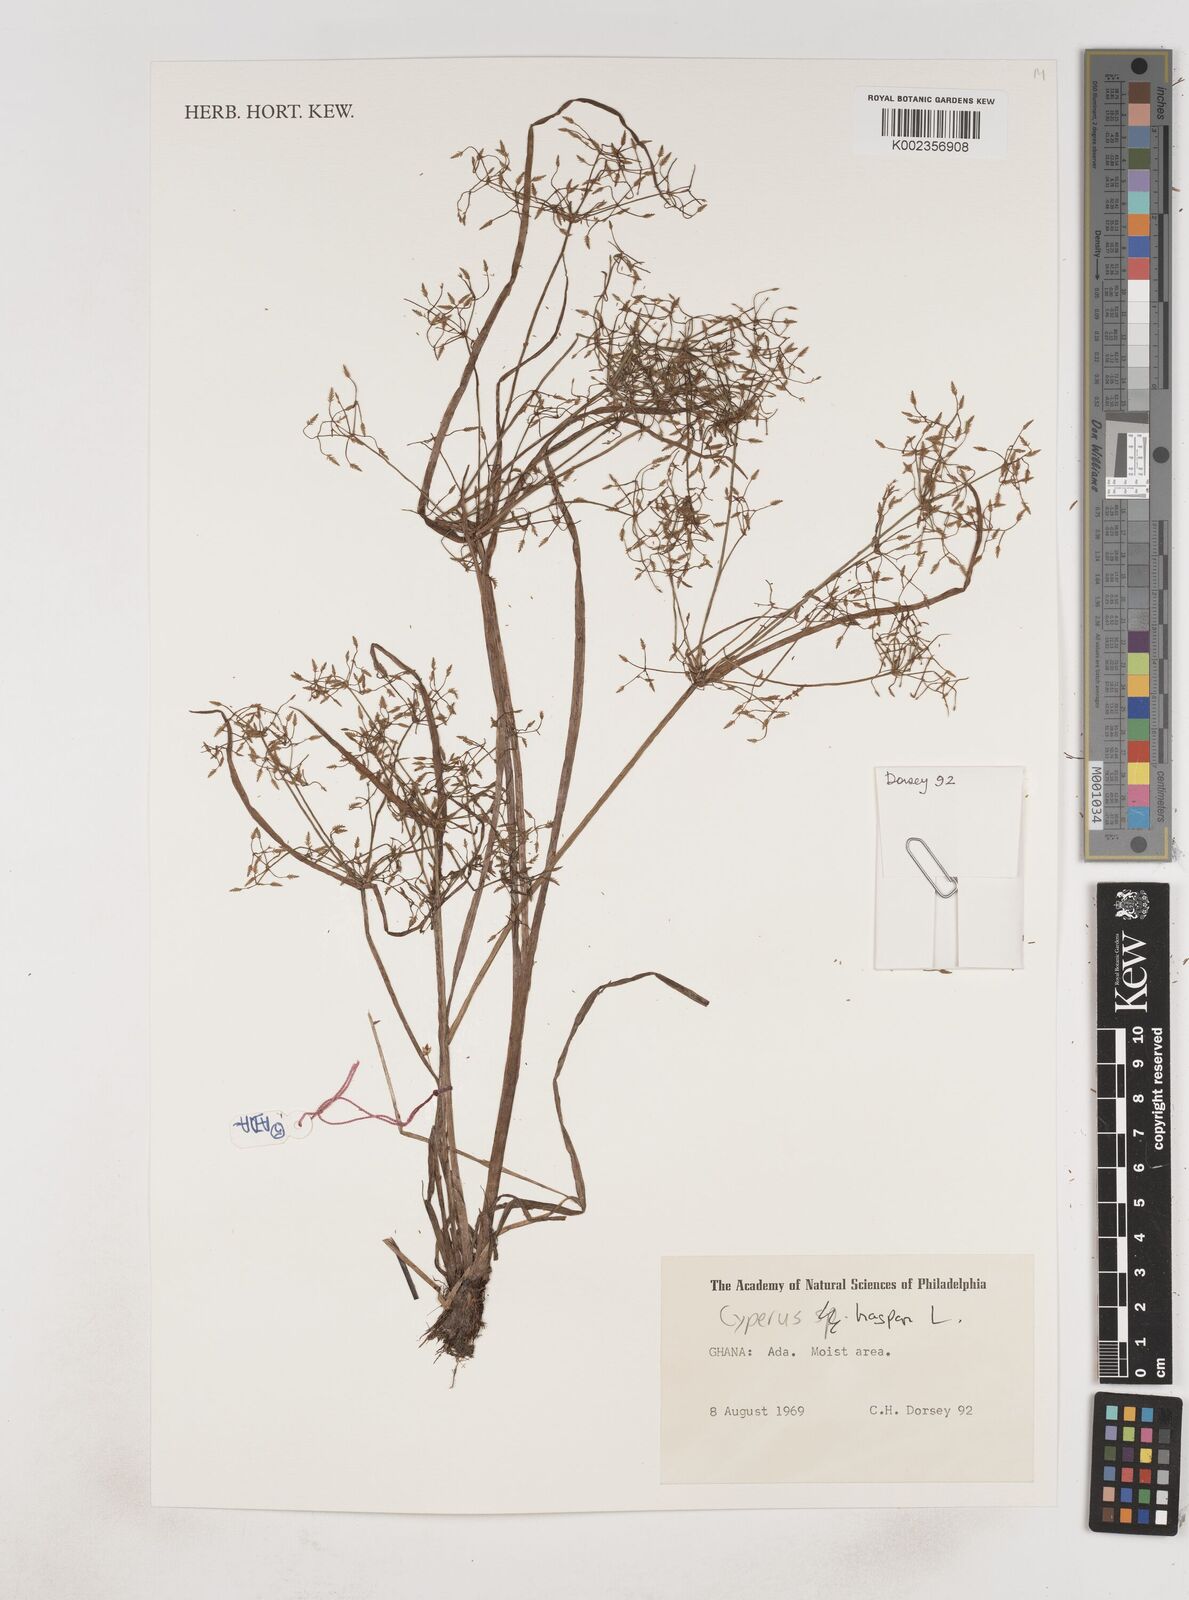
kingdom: Plantae
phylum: Tracheophyta
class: Liliopsida
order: Poales
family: Cyperaceae
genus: Cyperus
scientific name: Cyperus haspan
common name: Haspan flatsedge
